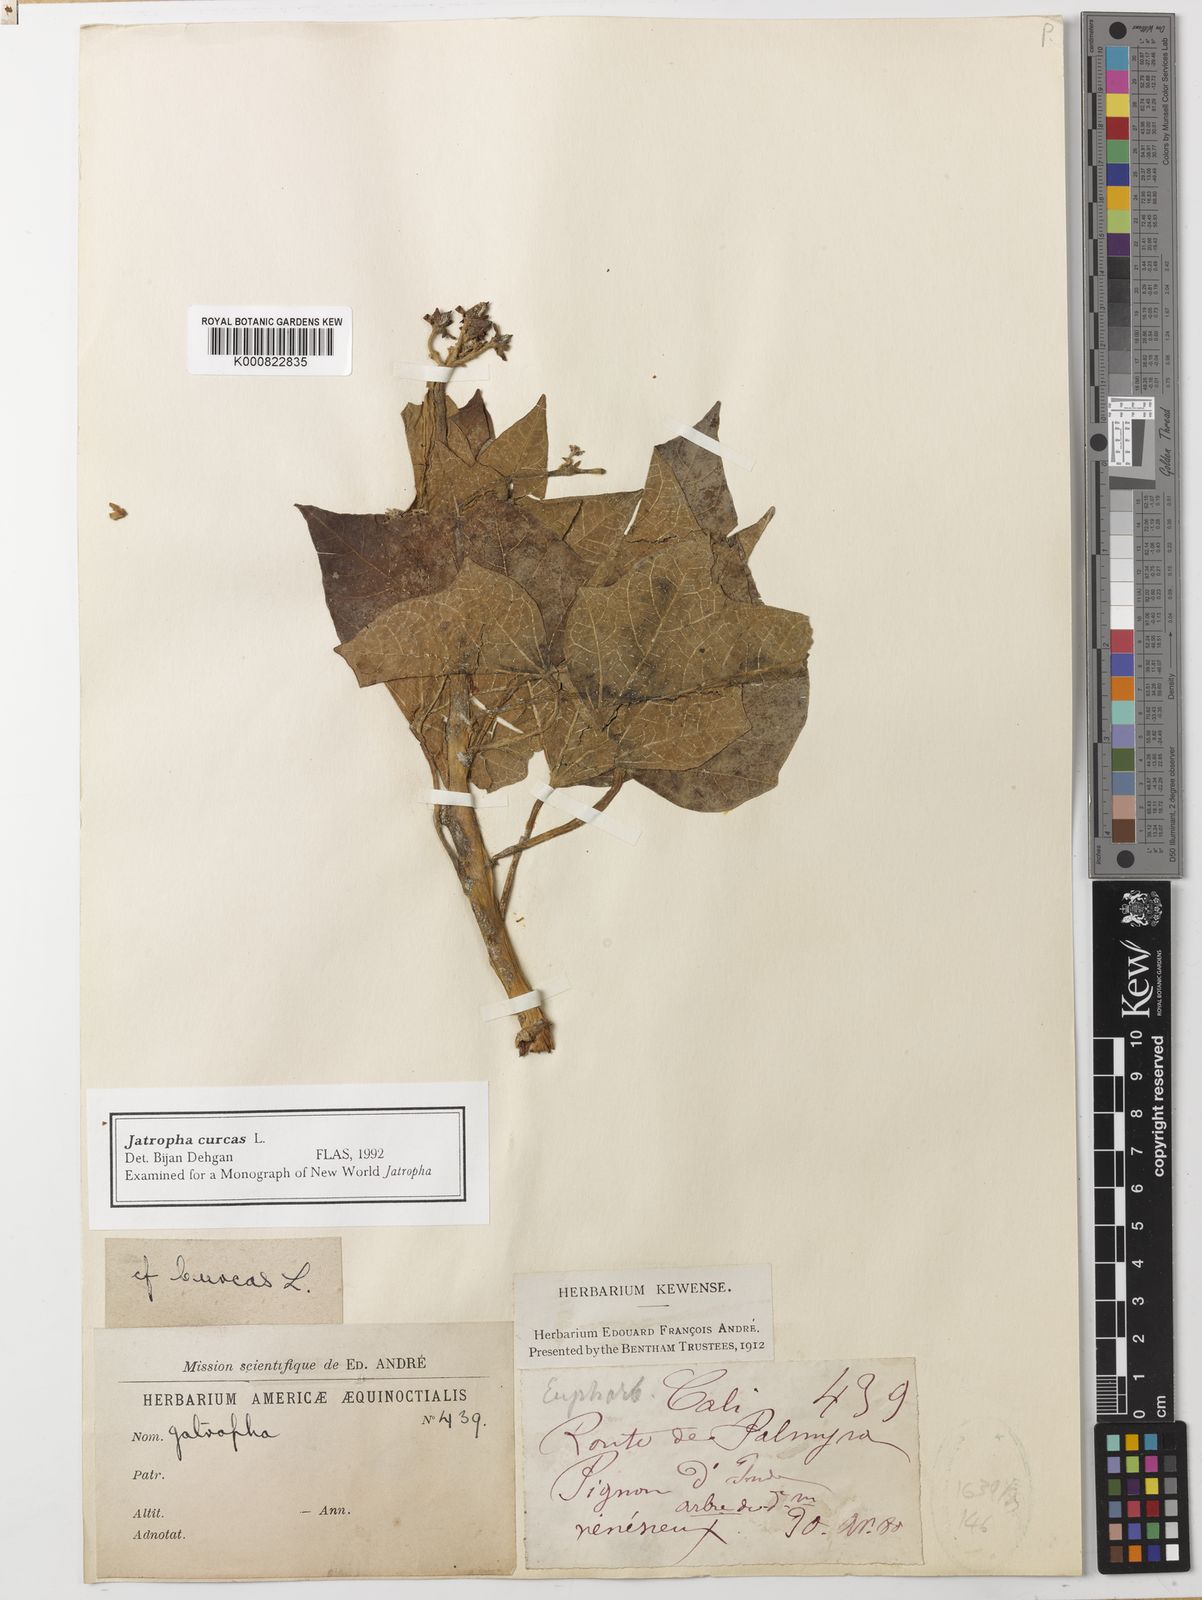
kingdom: Plantae
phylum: Tracheophyta
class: Magnoliopsida
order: Malpighiales
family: Euphorbiaceae
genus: Jatropha
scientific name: Jatropha curcas
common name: Barbados nut
